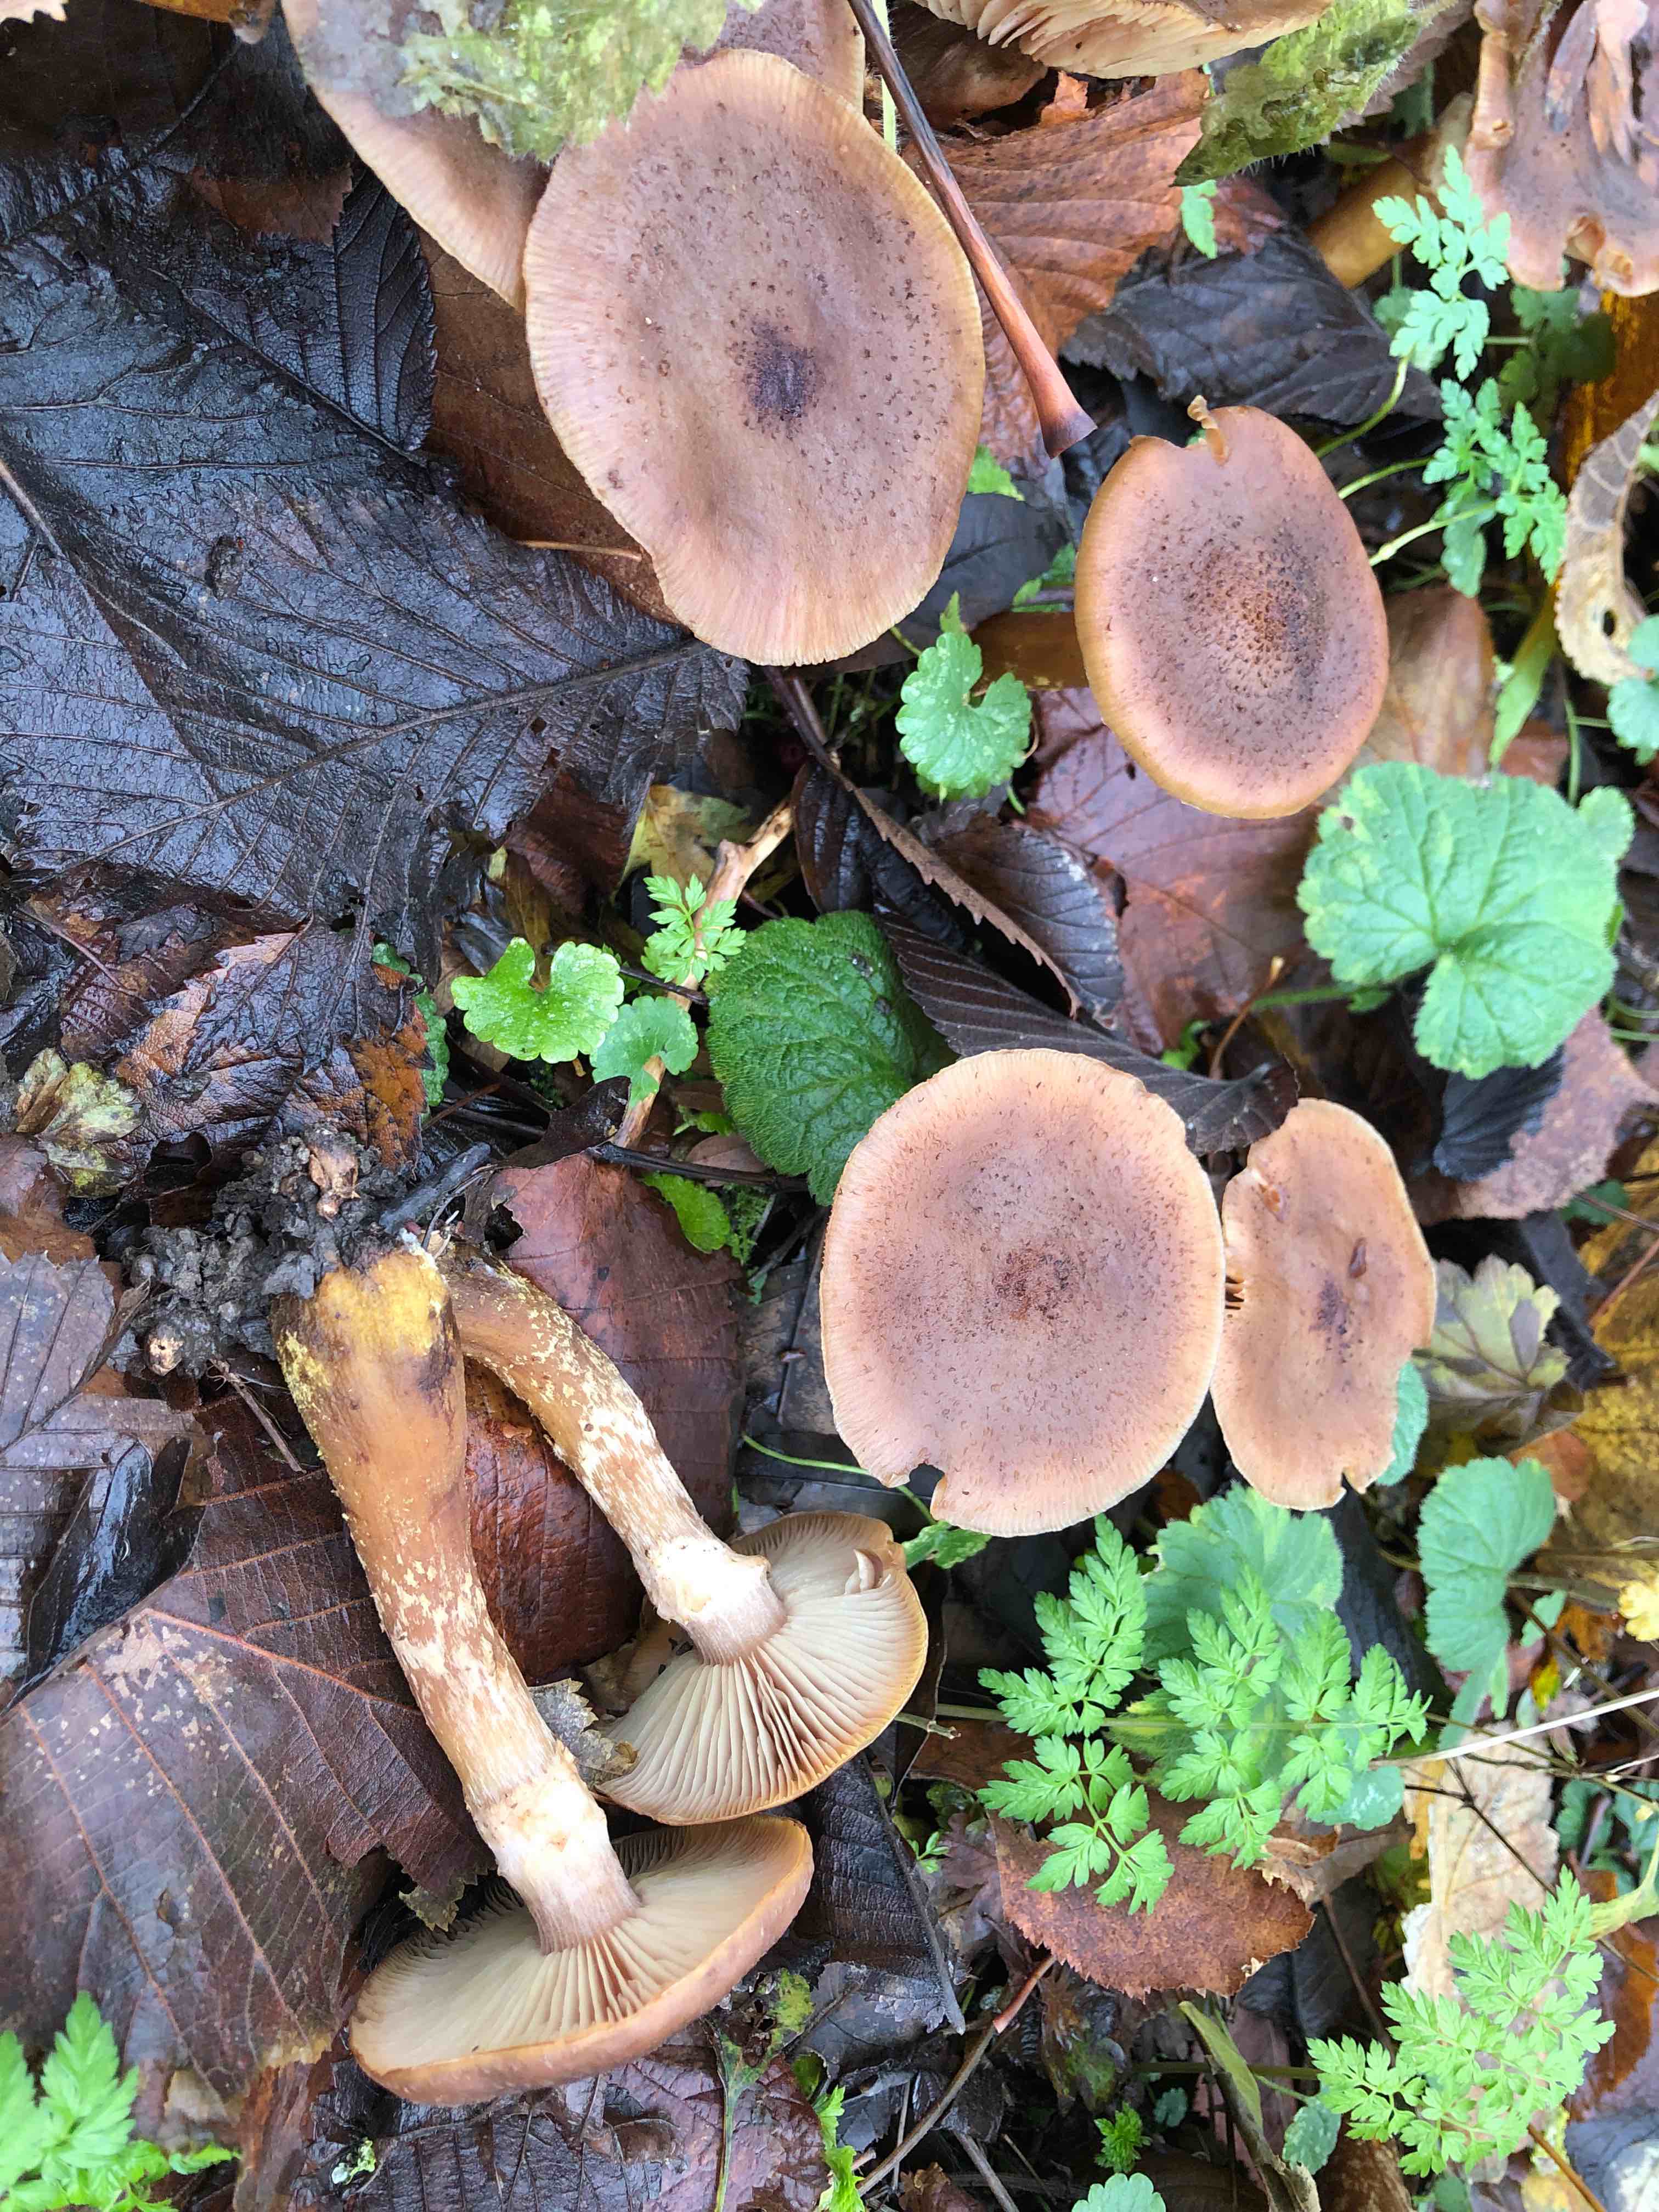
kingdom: Fungi
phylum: Basidiomycota
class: Agaricomycetes
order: Agaricales
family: Physalacriaceae
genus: Armillaria
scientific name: Armillaria lutea
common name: køllestokket honningsvamp
